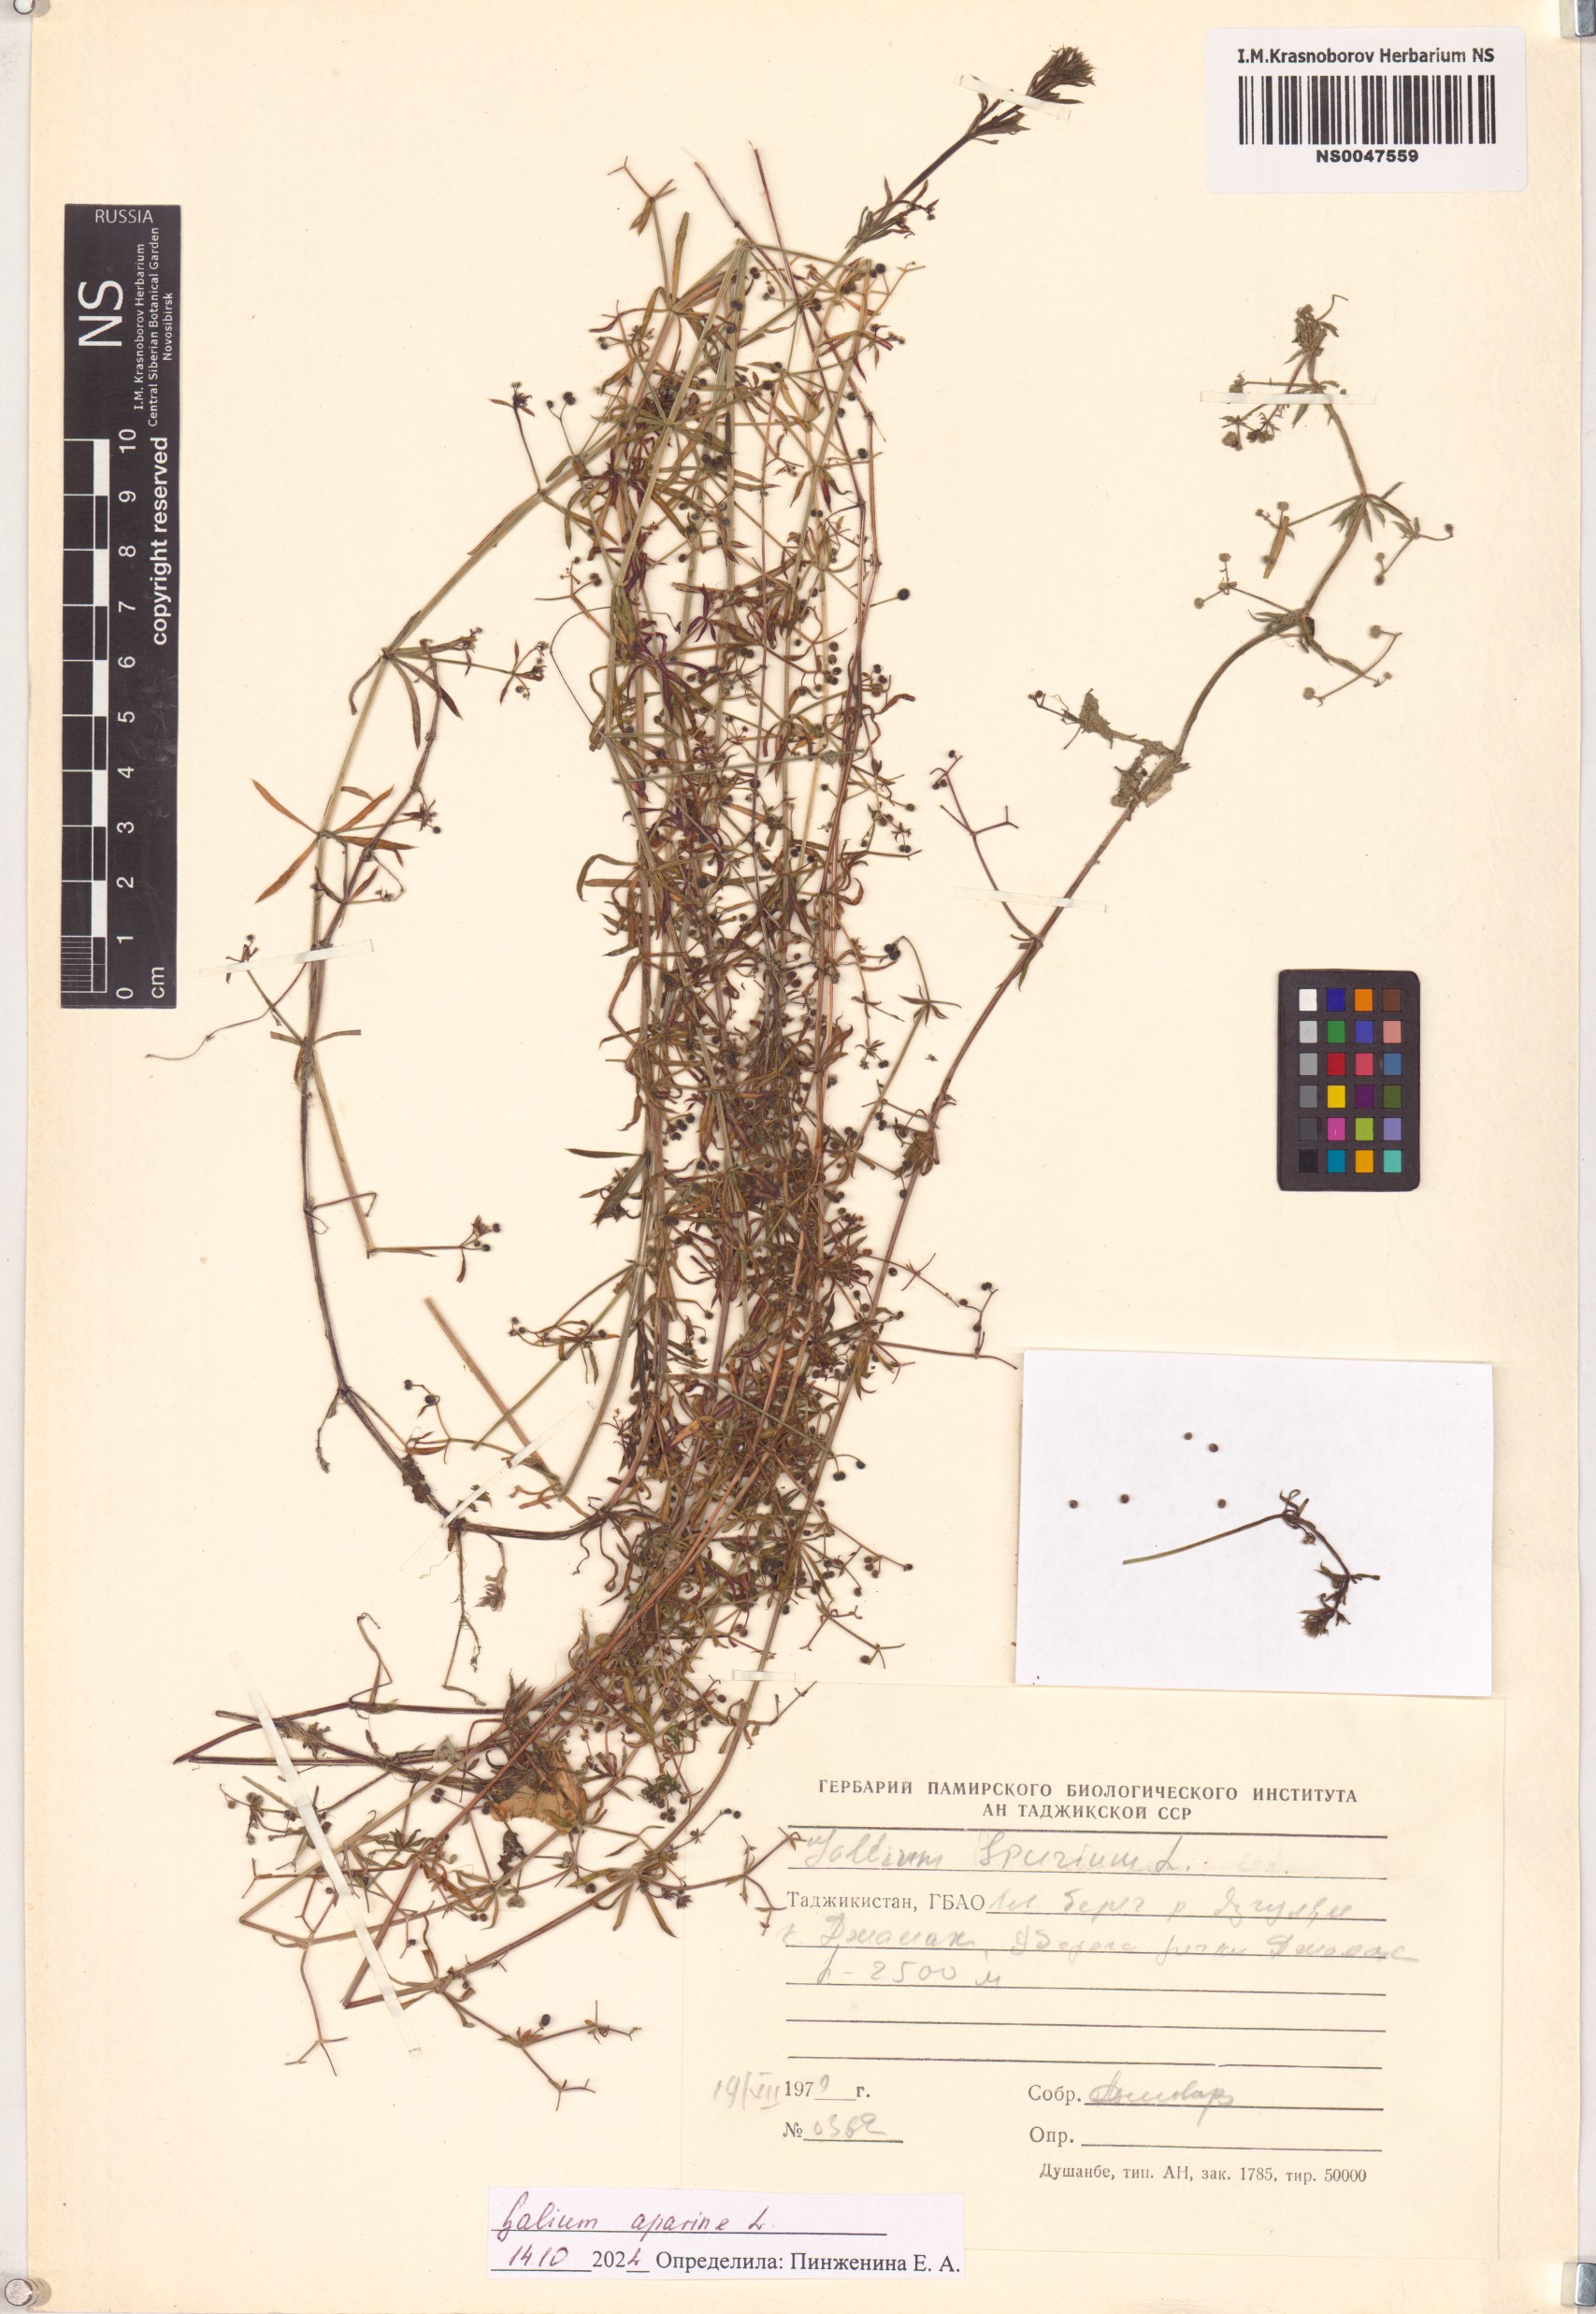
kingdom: Plantae
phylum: Tracheophyta
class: Magnoliopsida
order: Gentianales
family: Rubiaceae
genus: Galium
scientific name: Galium aparine
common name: Cleavers
